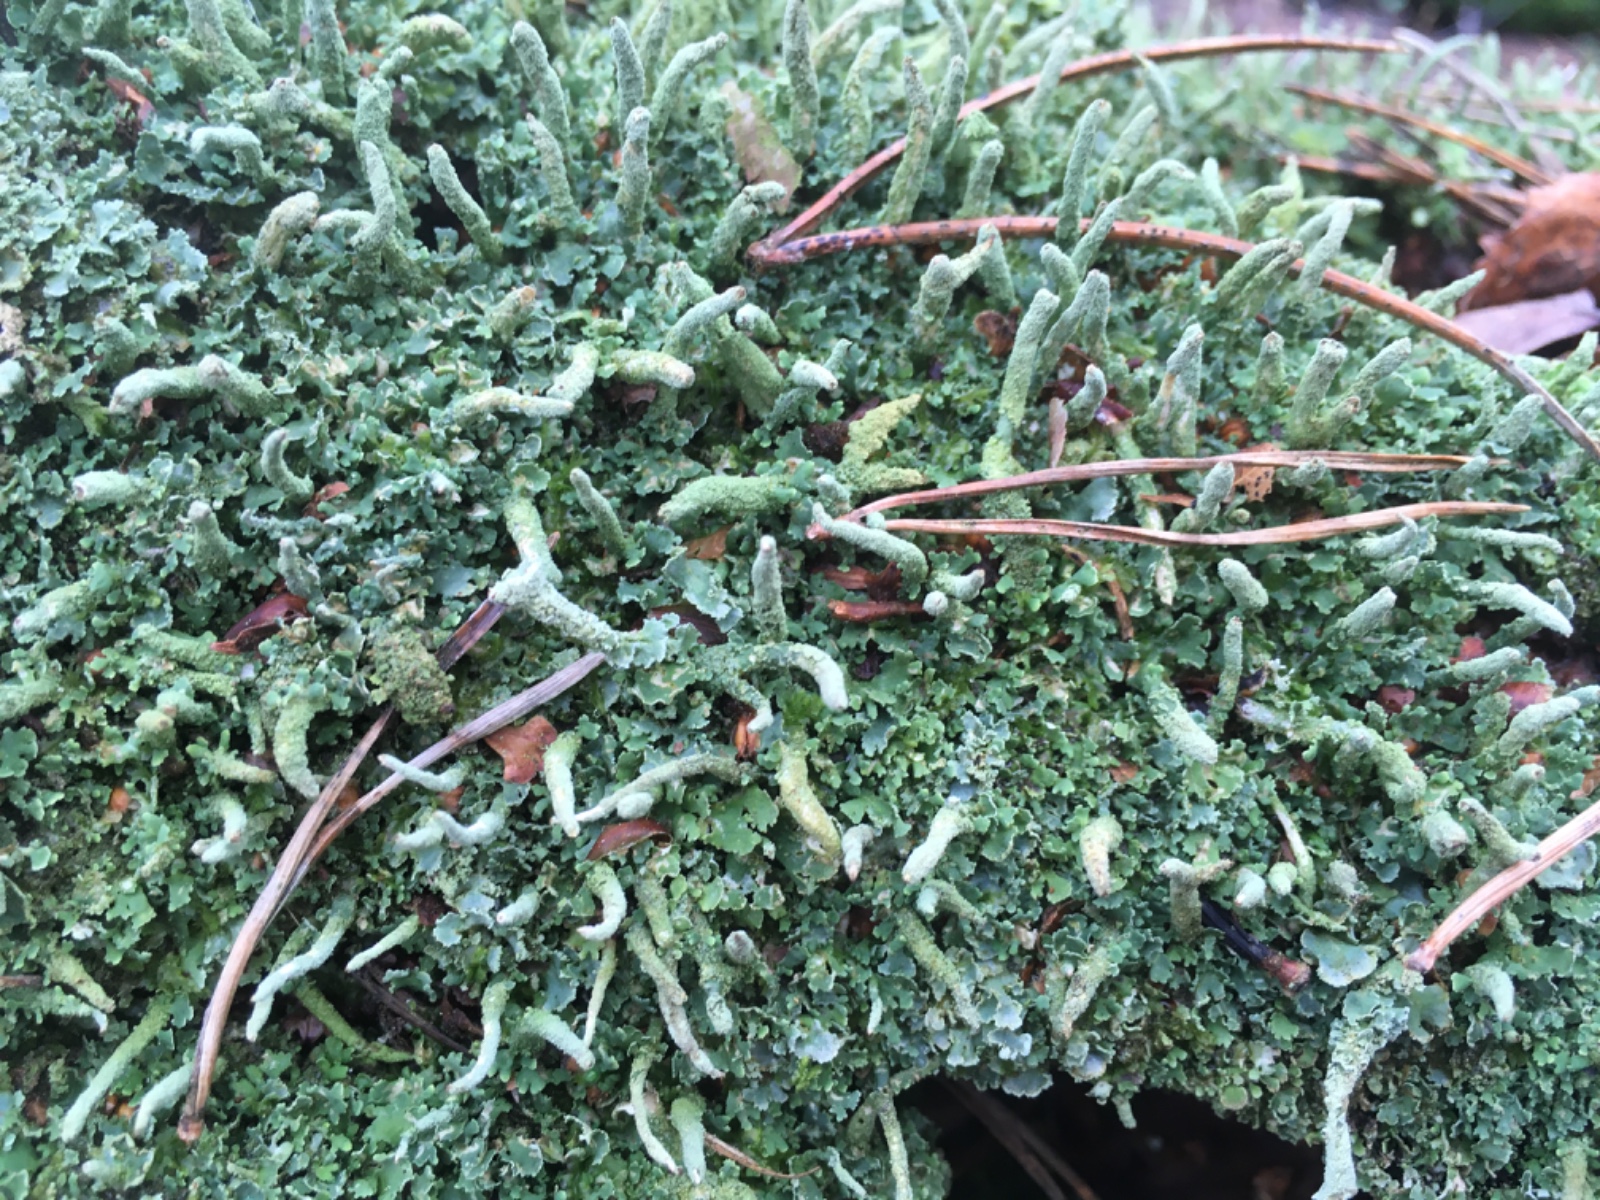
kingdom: Fungi
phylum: Ascomycota
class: Lecanoromycetes
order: Lecanorales
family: Cladoniaceae
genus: Cladonia
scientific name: Cladonia ochrochlora
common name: stød-bægerlav
